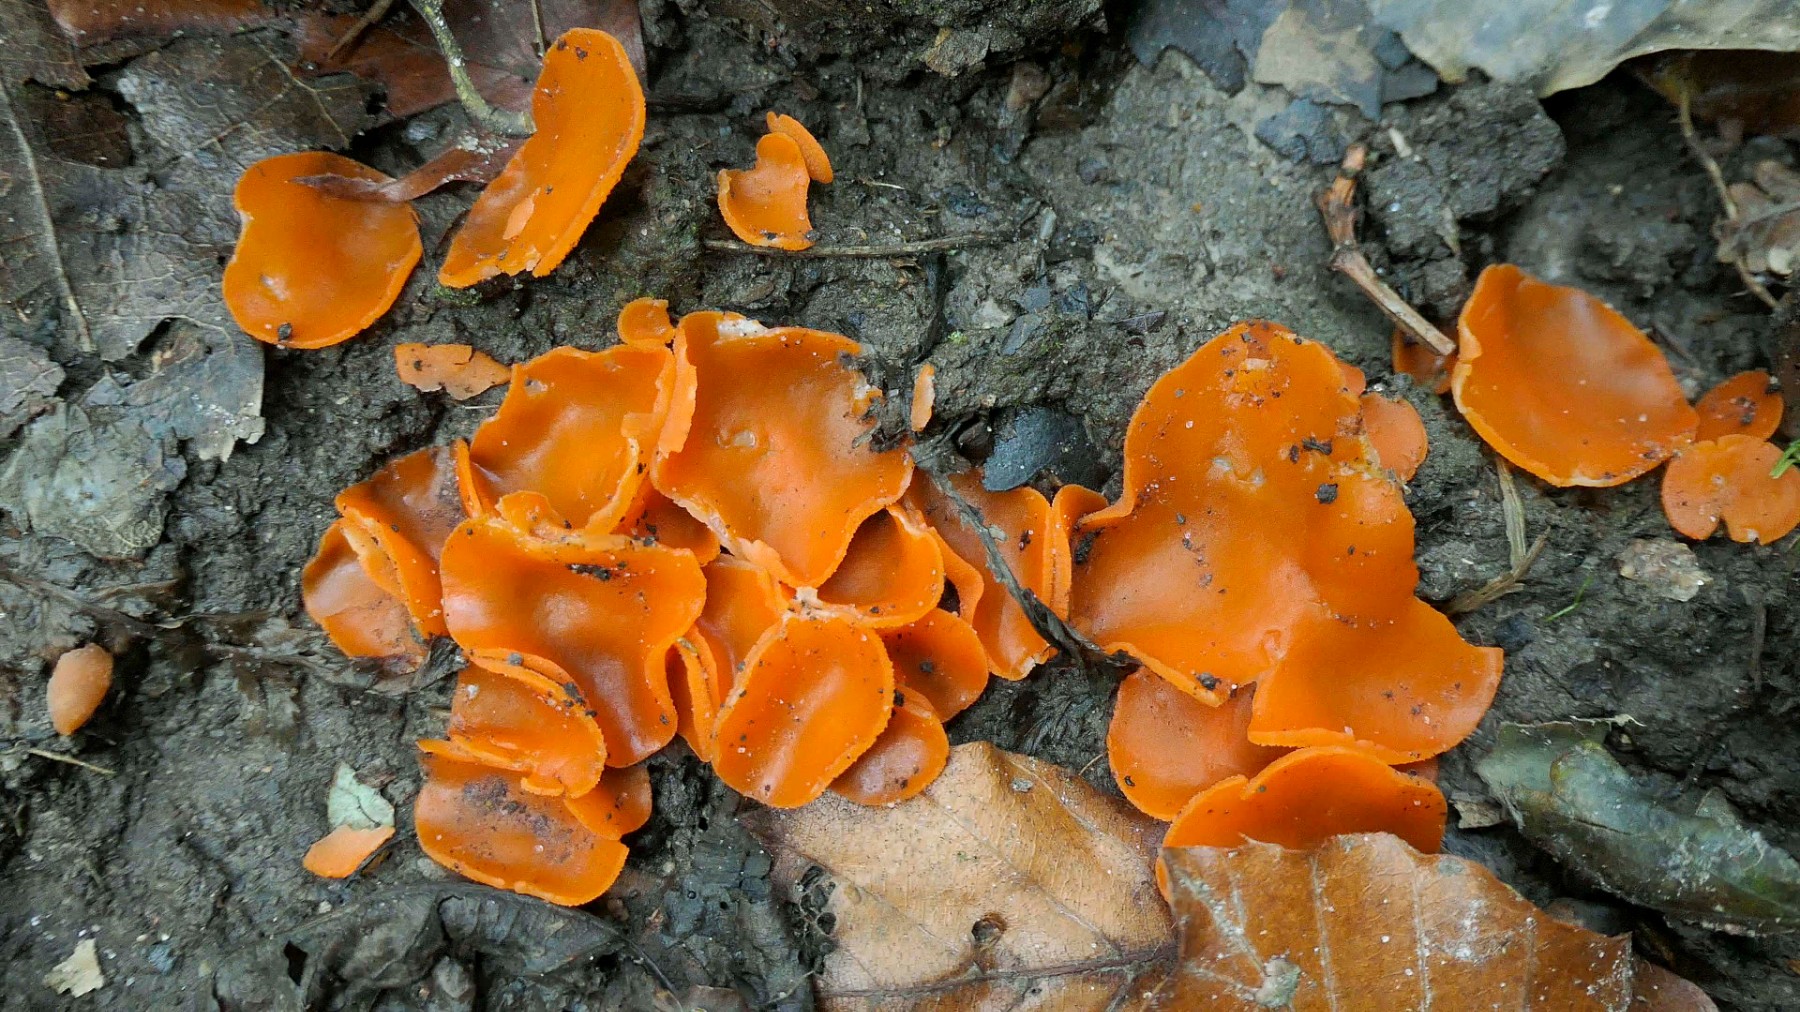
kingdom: Fungi
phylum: Ascomycota
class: Pezizomycetes
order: Pezizales
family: Pyronemataceae
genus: Aleuria
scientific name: Aleuria aurantia
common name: almindelig orangebæger
